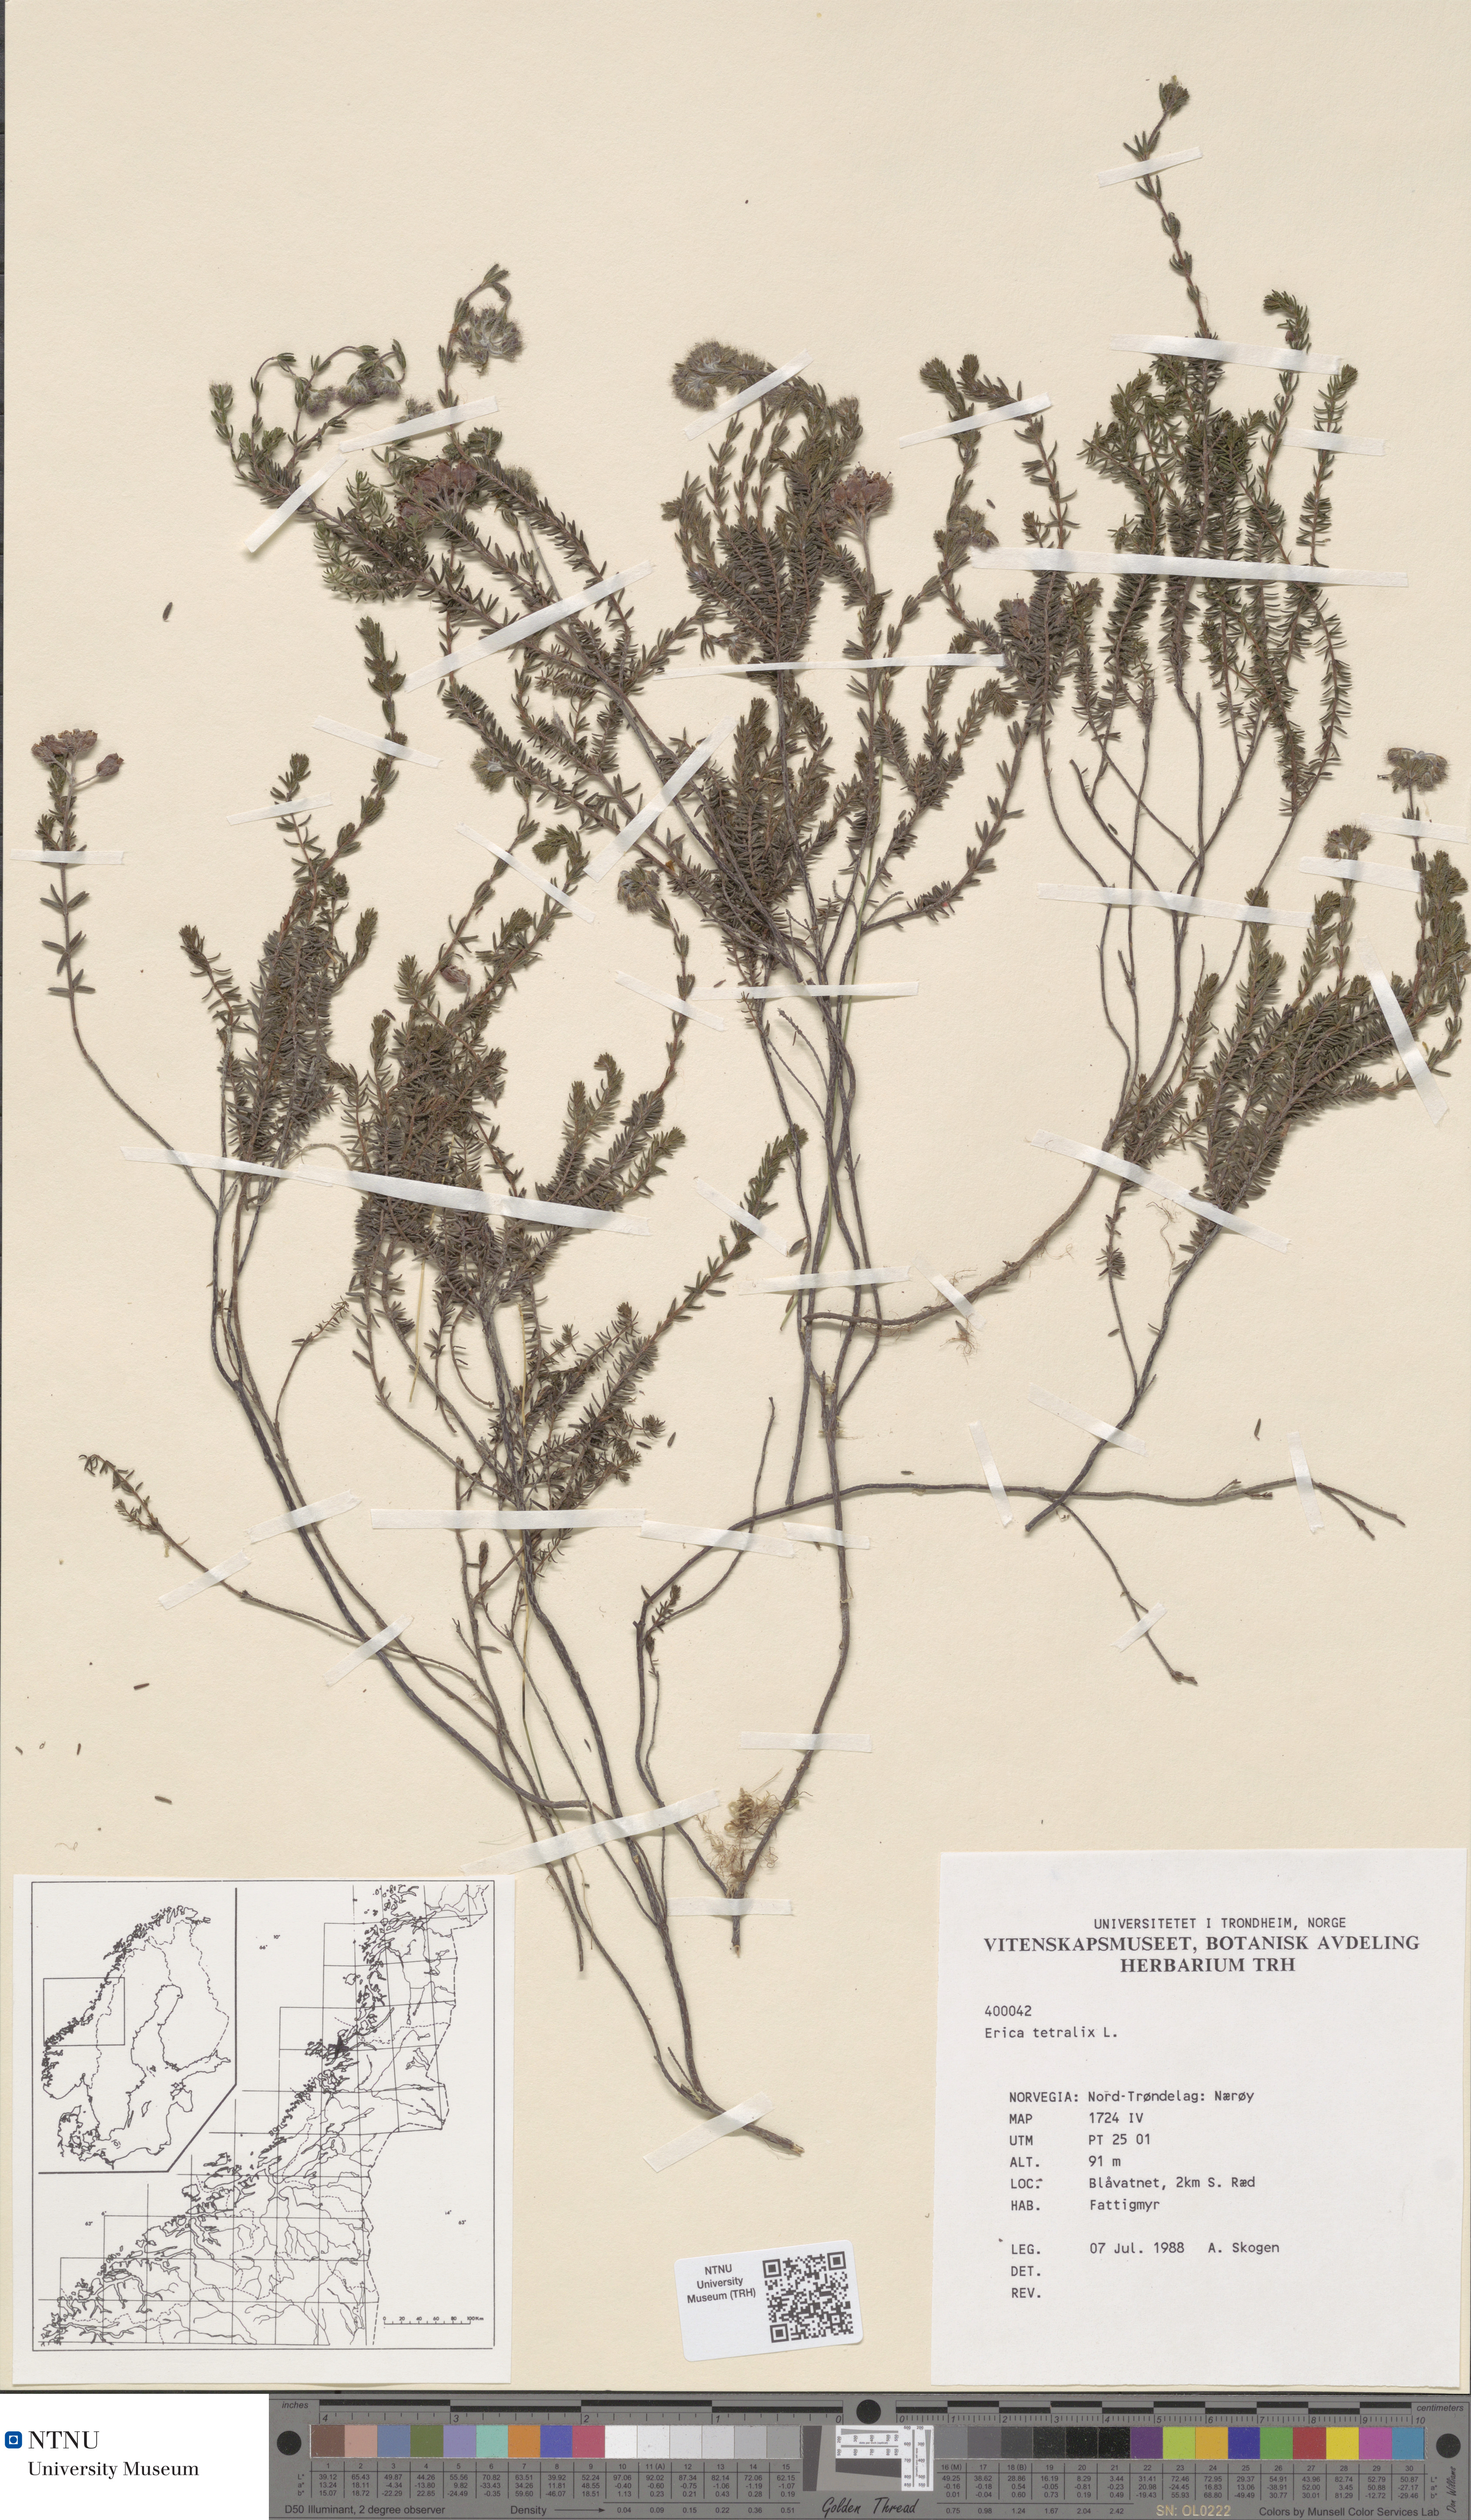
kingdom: Plantae
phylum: Tracheophyta
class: Magnoliopsida
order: Ericales
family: Ericaceae
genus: Erica
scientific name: Erica tetralix
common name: Cross-leaved heath
